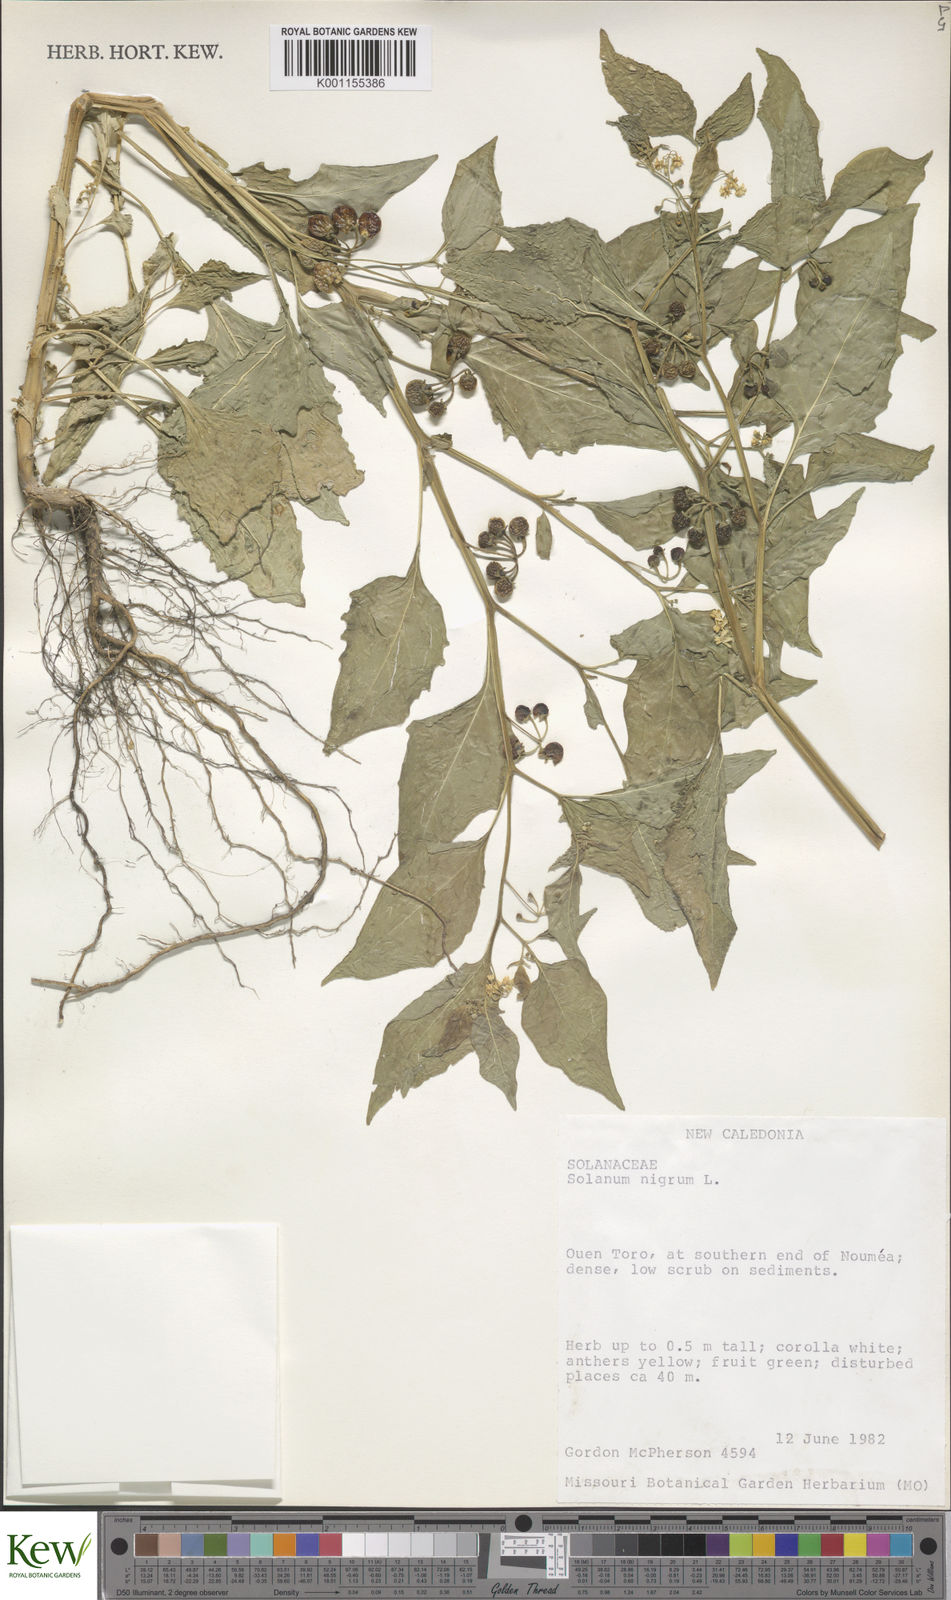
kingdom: Plantae
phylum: Tracheophyta
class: Magnoliopsida
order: Solanales
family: Solanaceae
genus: Solanum
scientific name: Solanum americanum
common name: American black nightshade
